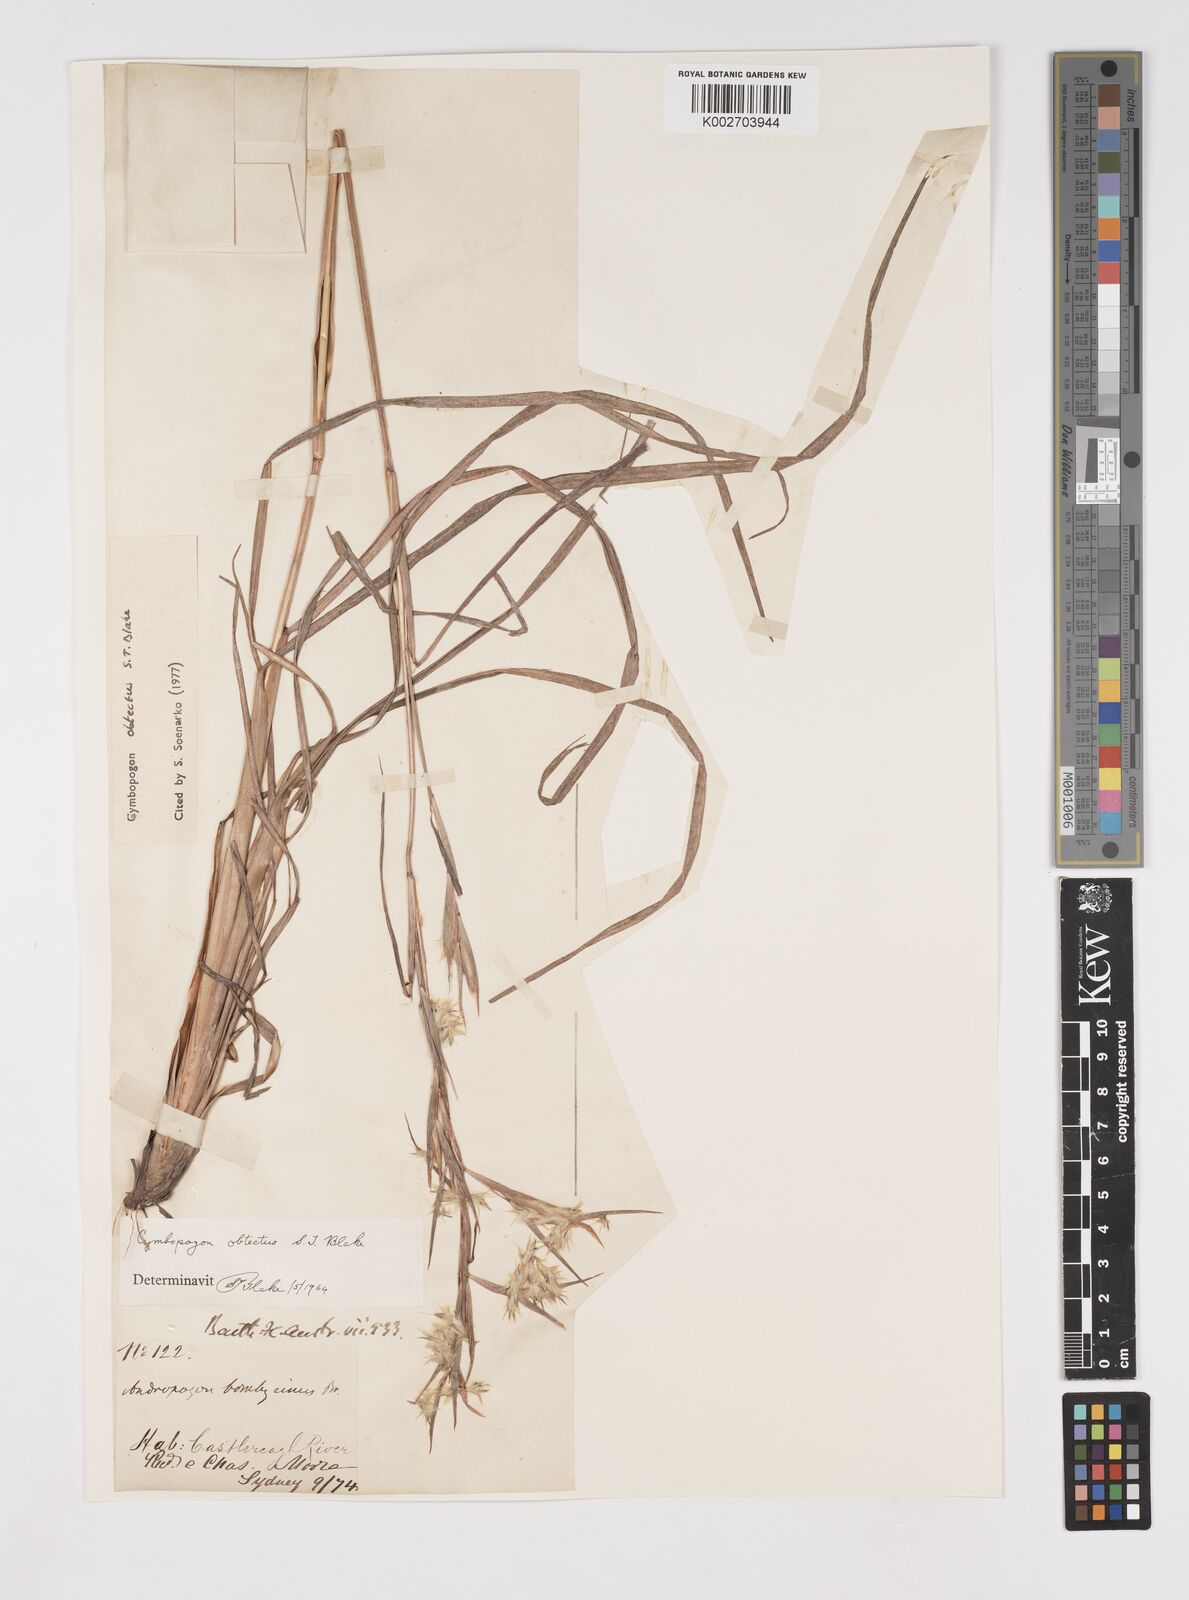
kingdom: Plantae
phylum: Tracheophyta
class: Liliopsida
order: Poales
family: Poaceae
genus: Cymbopogon
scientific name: Cymbopogon obtectus
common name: Silky heads
